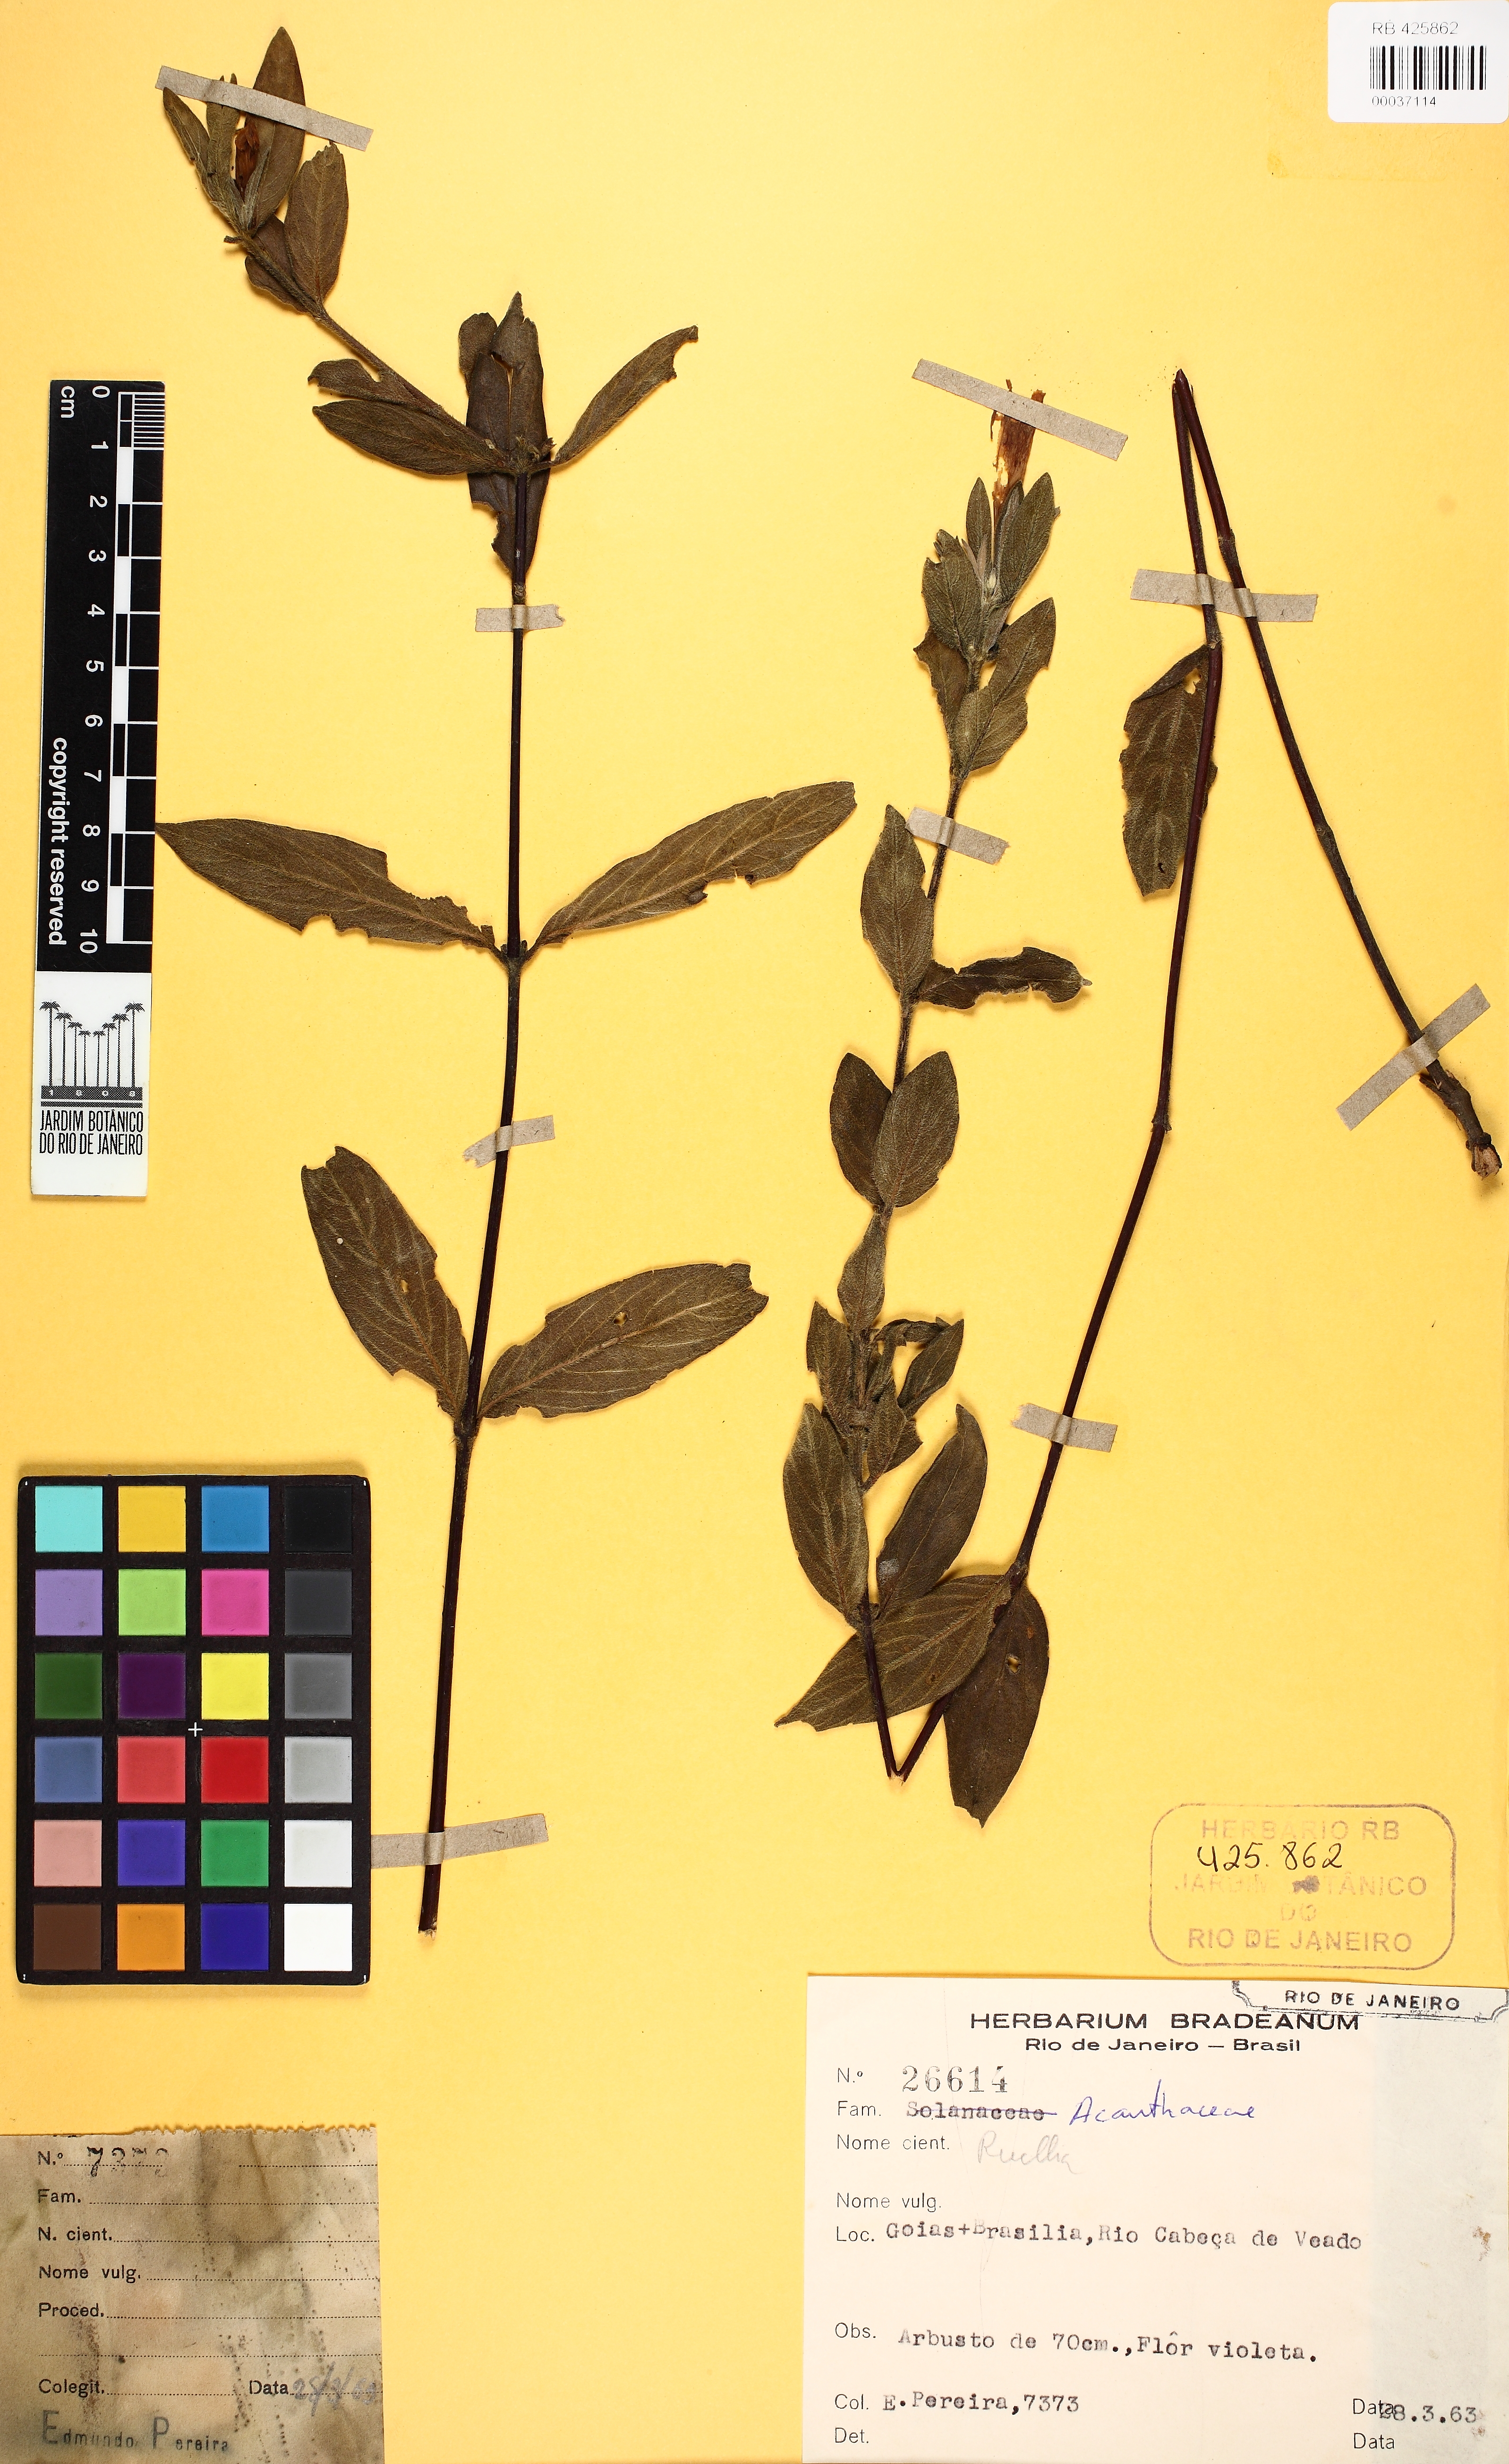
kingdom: Plantae
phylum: Tracheophyta
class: Magnoliopsida
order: Lamiales
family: Acanthaceae
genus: Ruellia
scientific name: Ruellia hapalotricha
